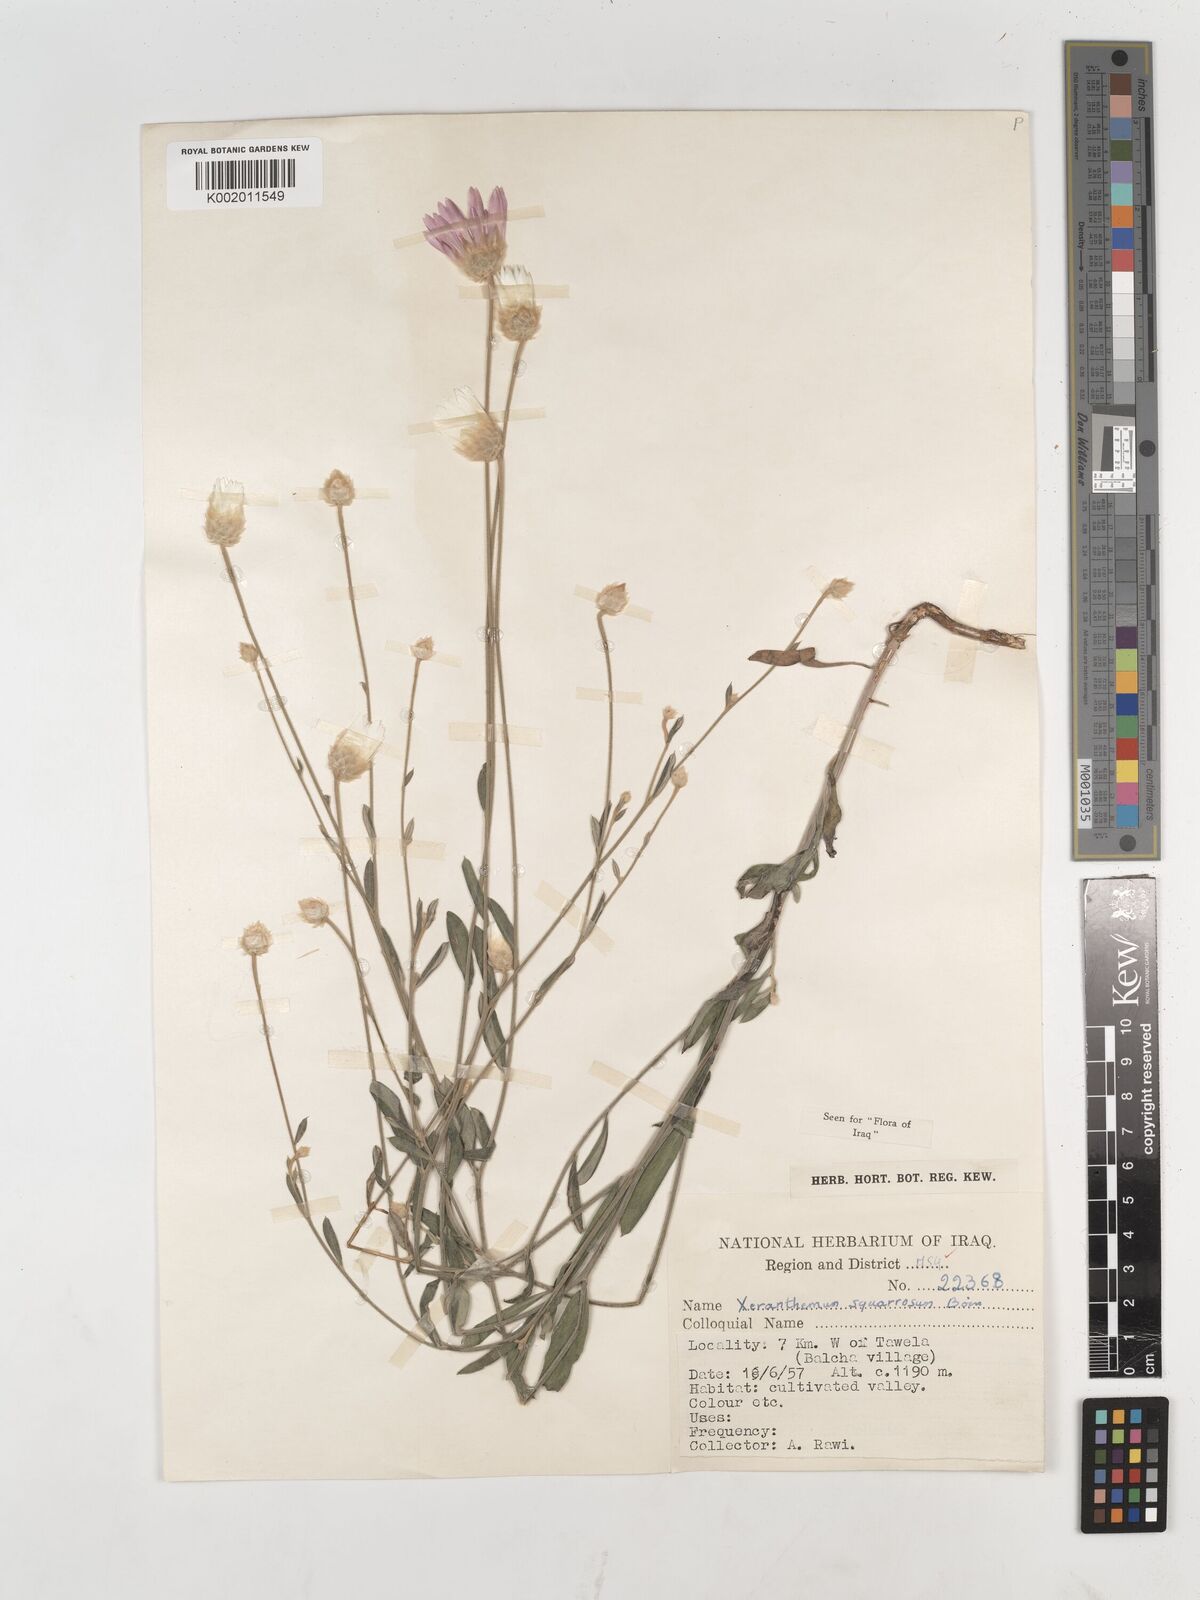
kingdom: Plantae
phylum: Tracheophyta
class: Magnoliopsida
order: Asterales
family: Asteraceae
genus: Xeranthemum
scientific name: Xeranthemum annuum
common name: Immortelle
